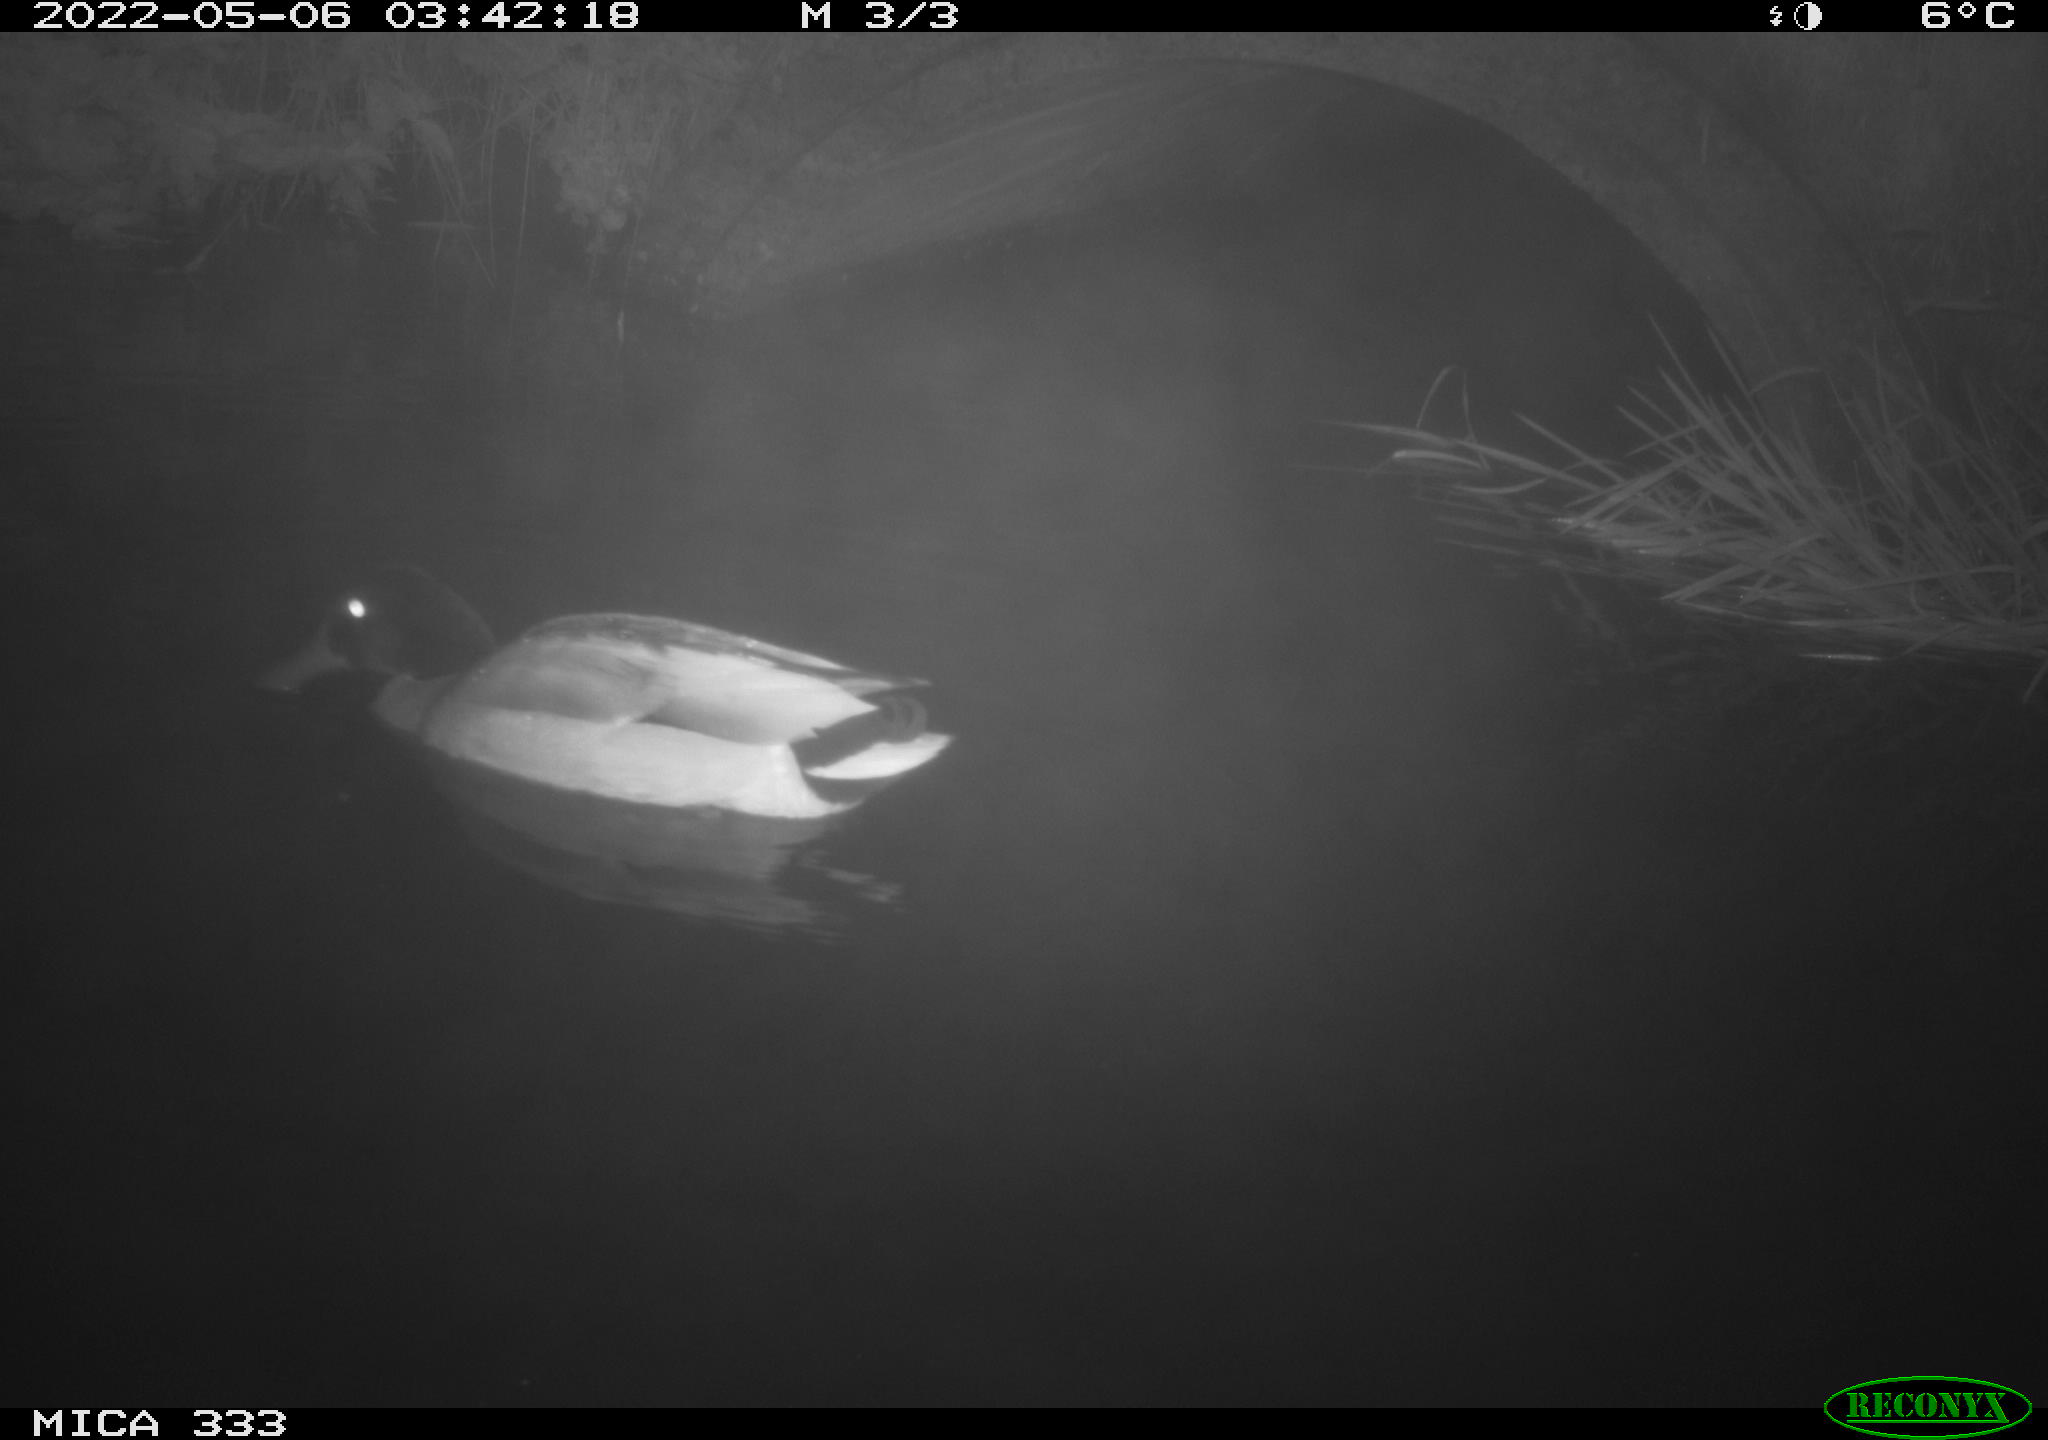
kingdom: Animalia
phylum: Chordata
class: Aves
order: Anseriformes
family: Anatidae
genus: Anas
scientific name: Anas platyrhynchos
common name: Mallard
